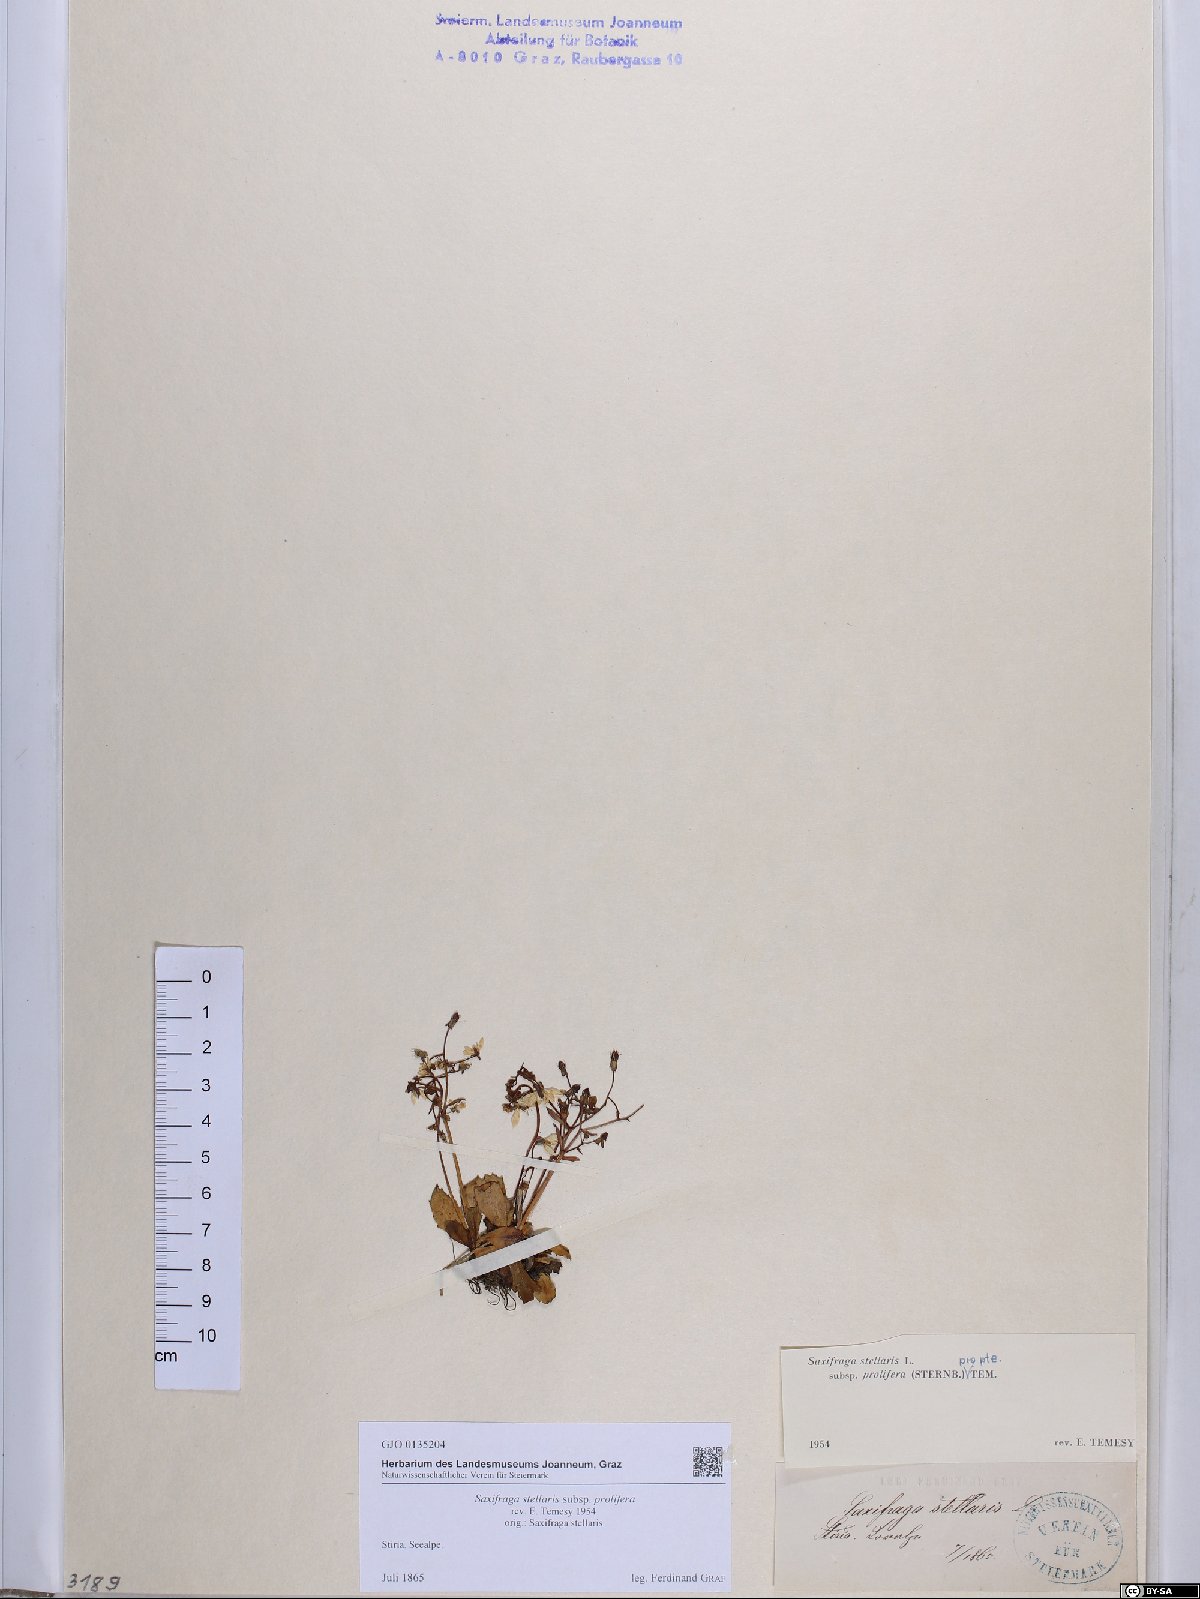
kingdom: Plantae
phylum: Tracheophyta
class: Magnoliopsida
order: Saxifragales
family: Saxifragaceae
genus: Micranthes
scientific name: Micranthes stellaris
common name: Starry saxifrage
